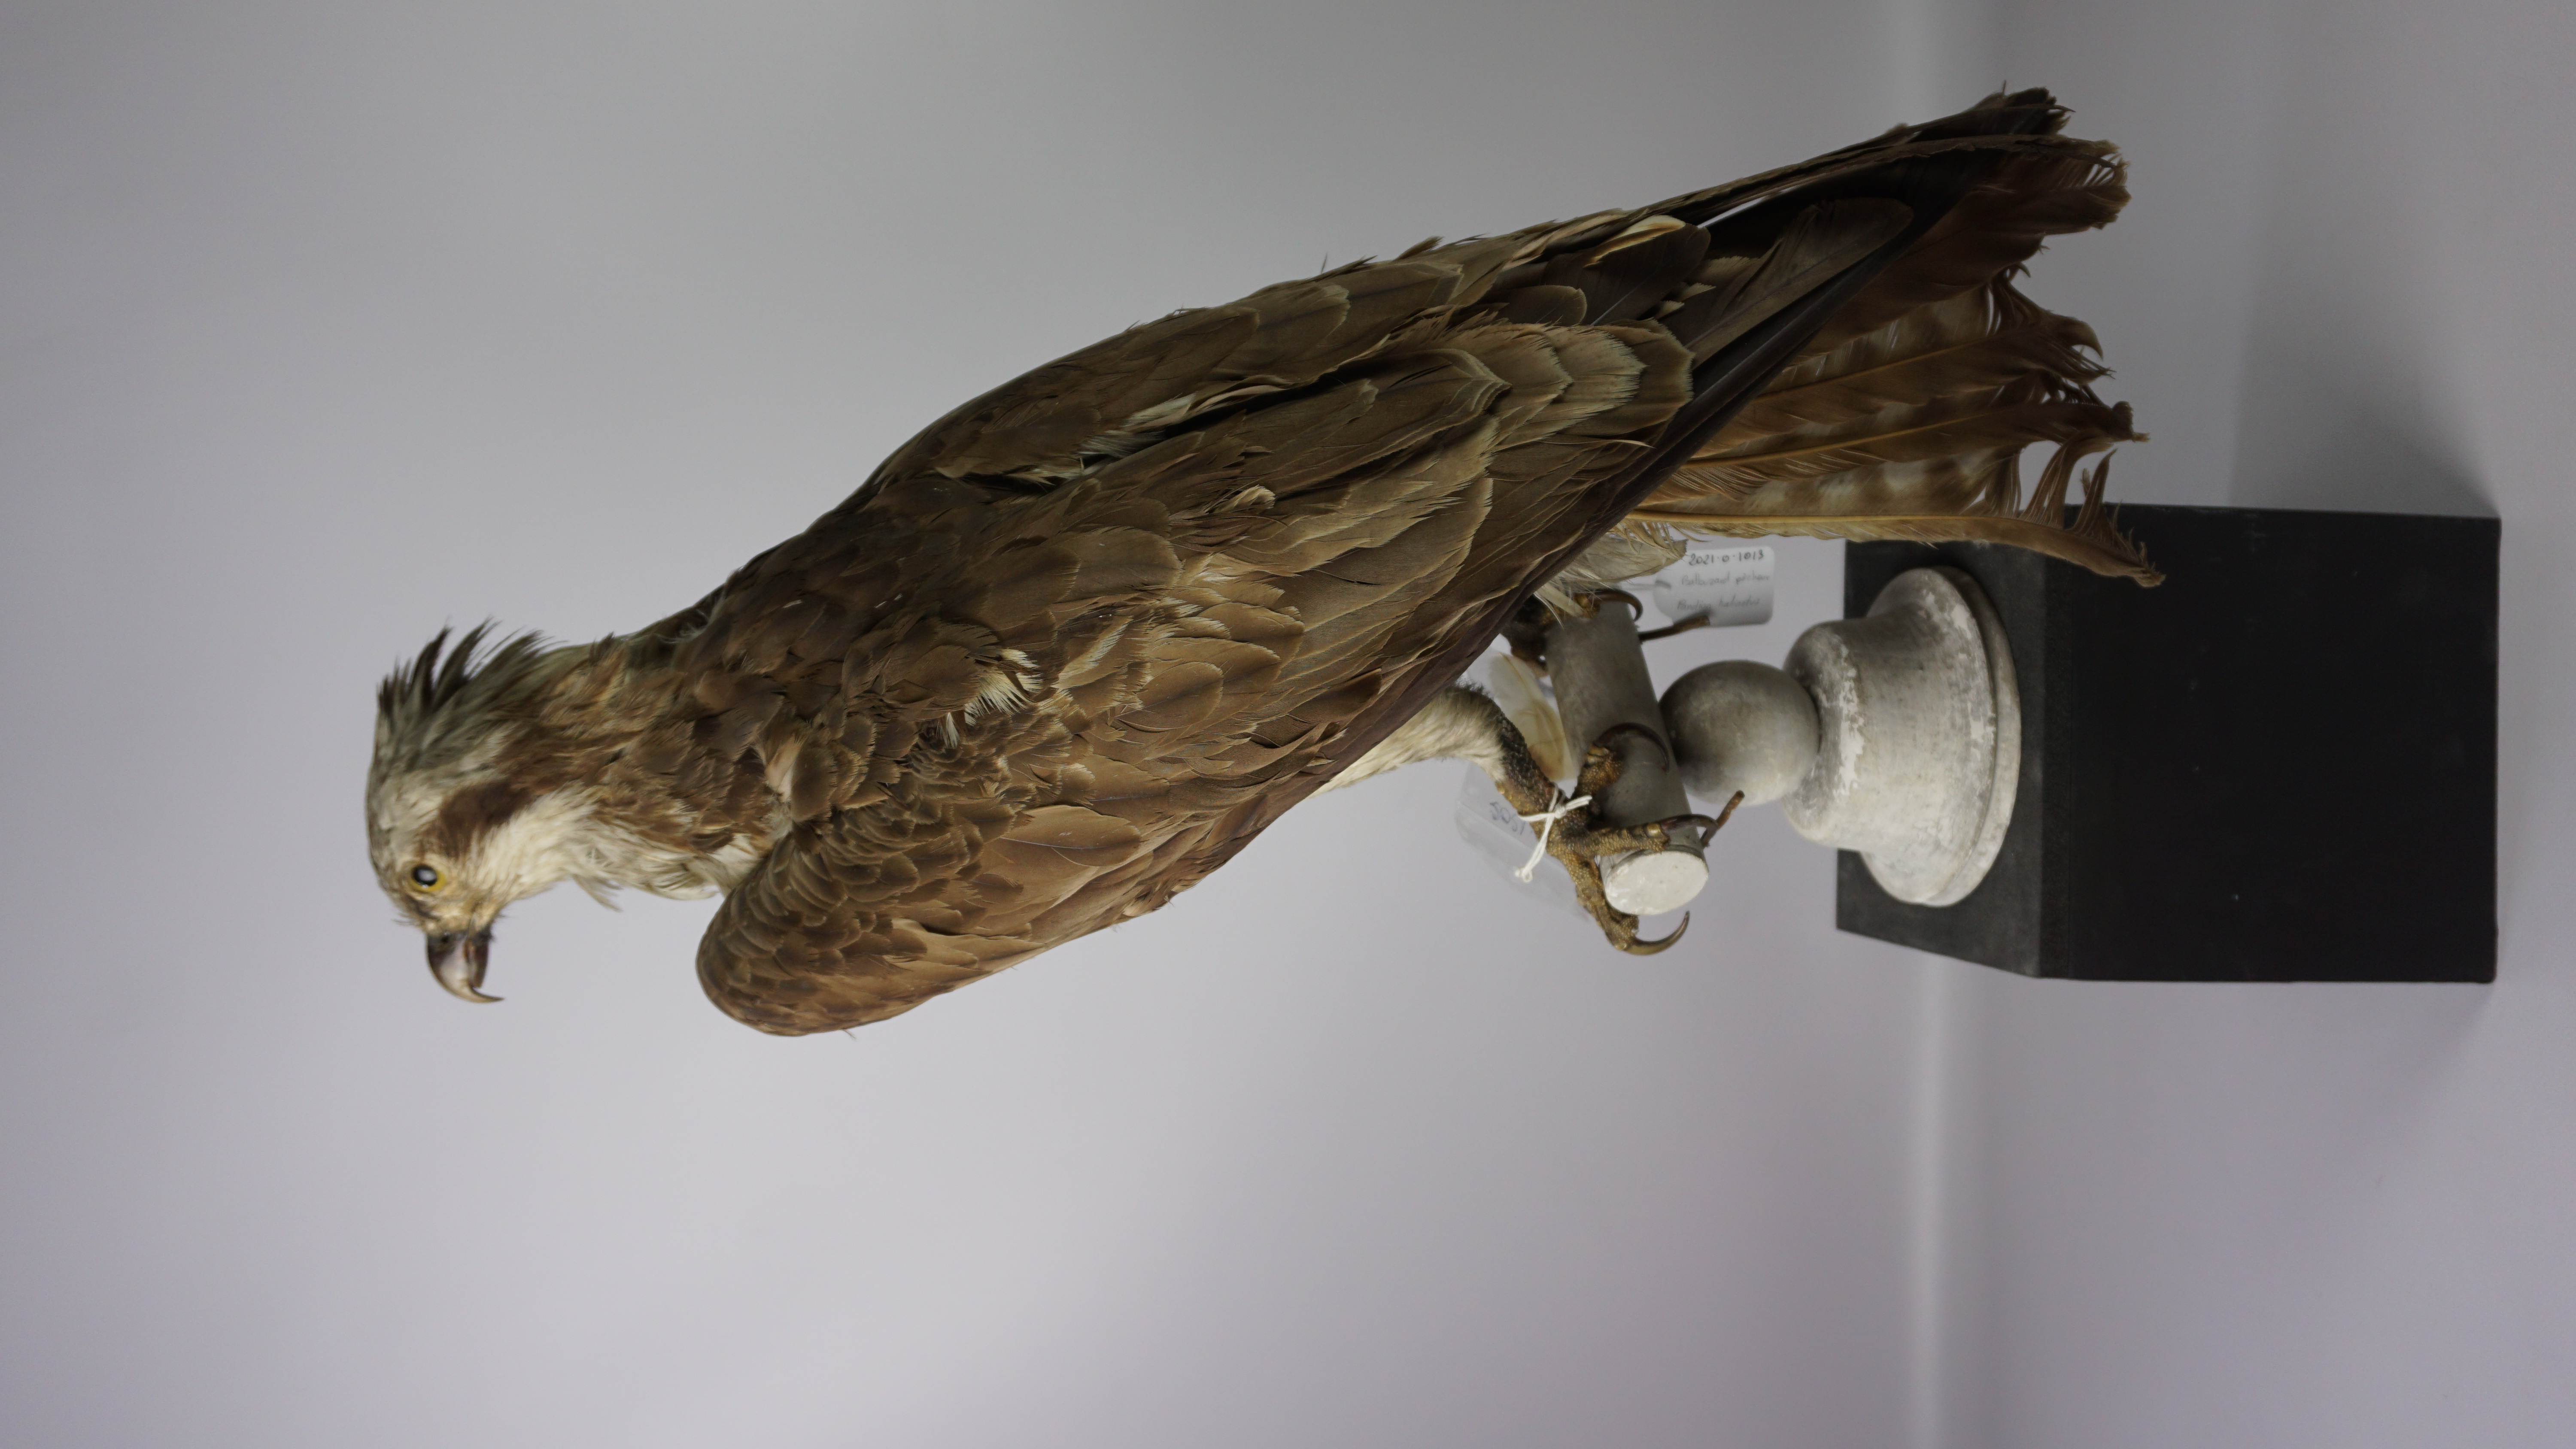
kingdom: Animalia
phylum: Chordata
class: Aves
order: Accipitriformes
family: Pandionidae
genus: Pandion
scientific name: Pandion haliaetus
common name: Osprey
